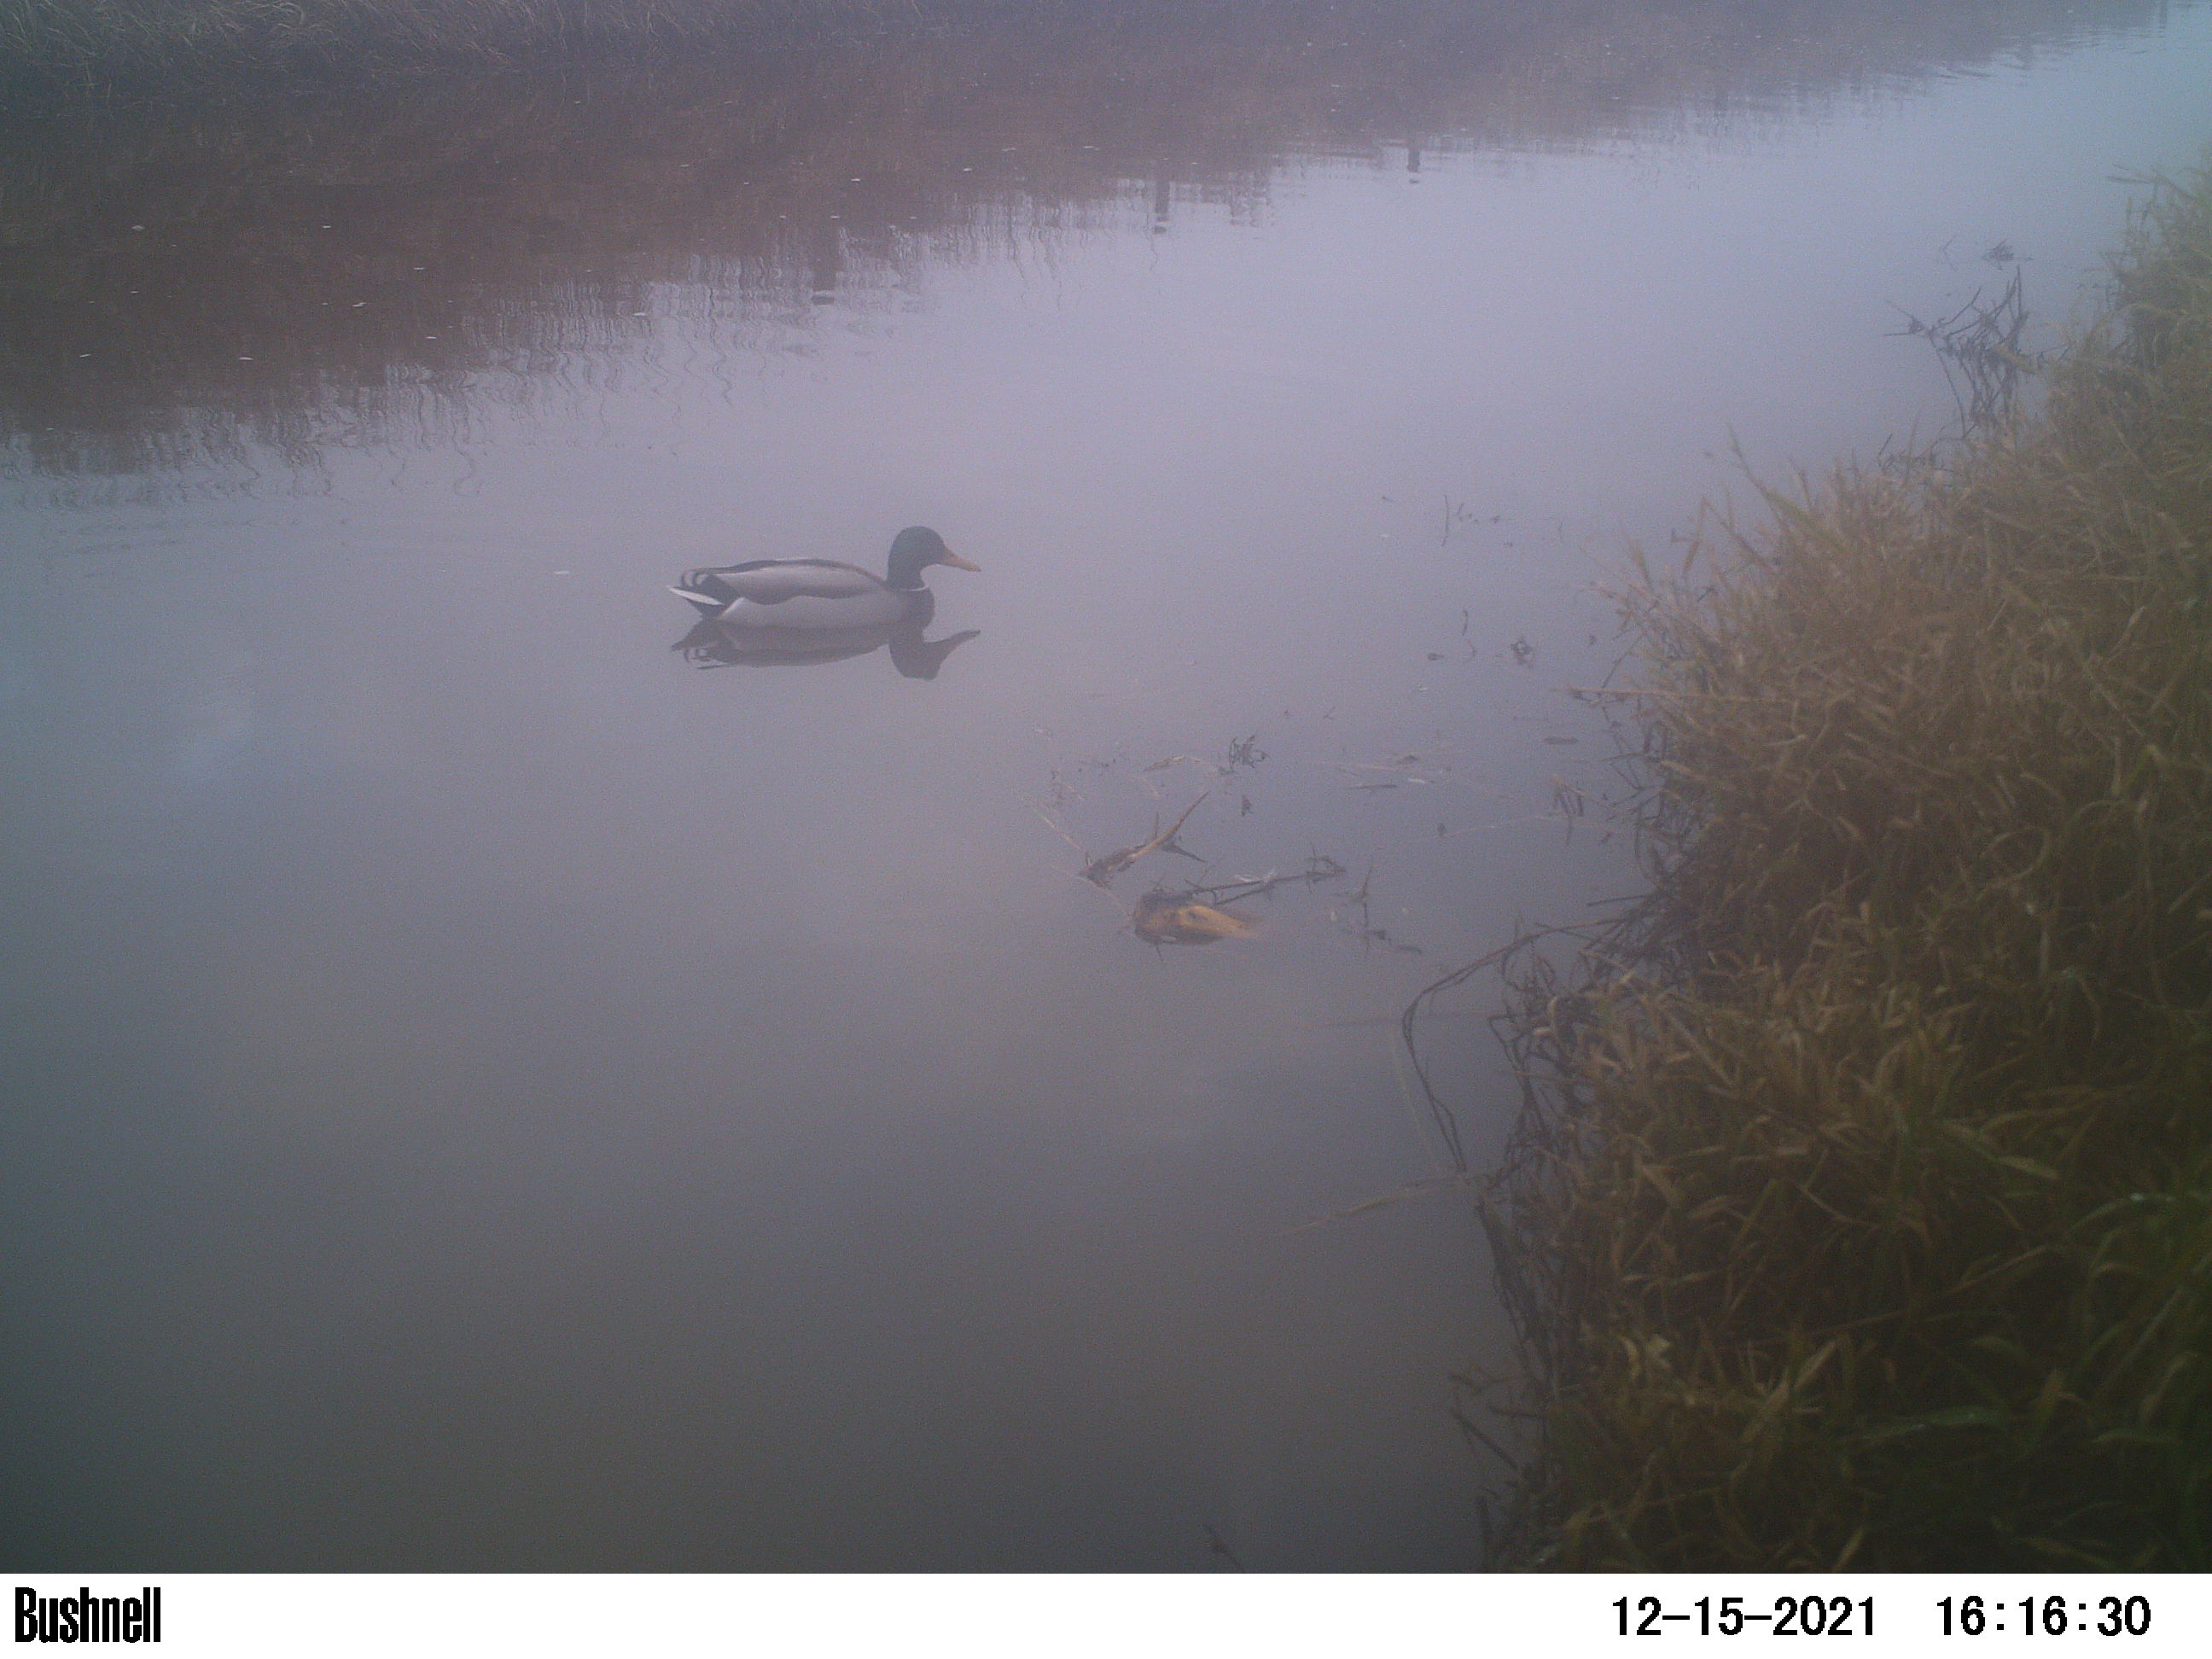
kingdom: Animalia
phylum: Chordata
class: Aves
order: Anseriformes
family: Anatidae
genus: Anas
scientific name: Anas
